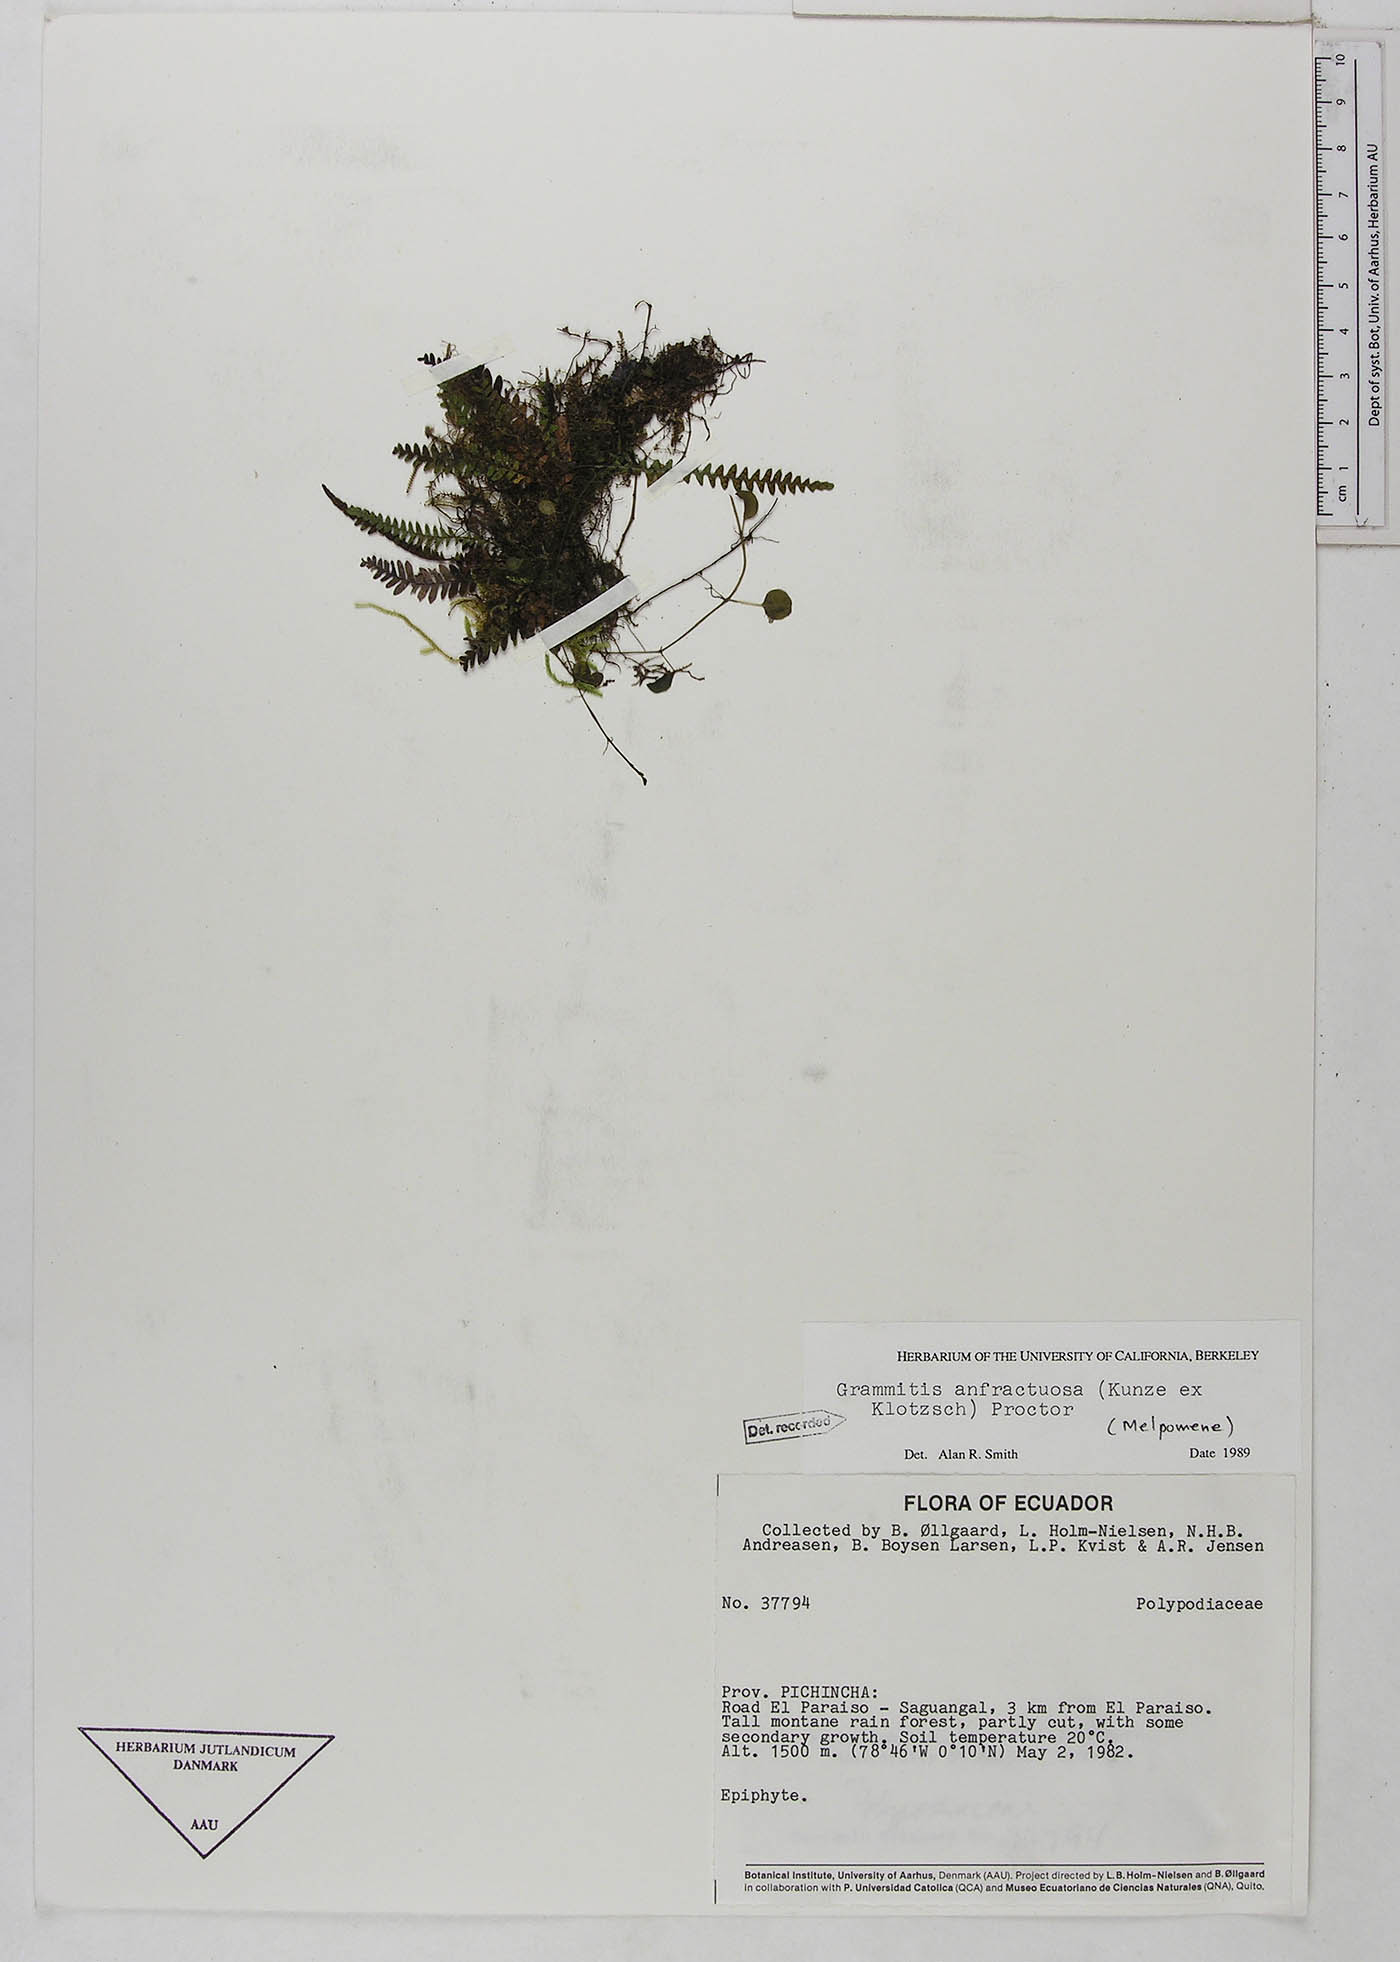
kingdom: Plantae
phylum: Tracheophyta
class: Polypodiopsida
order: Polypodiales
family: Polypodiaceae
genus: Ascogrammitis
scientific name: Ascogrammitis anfractuosa
